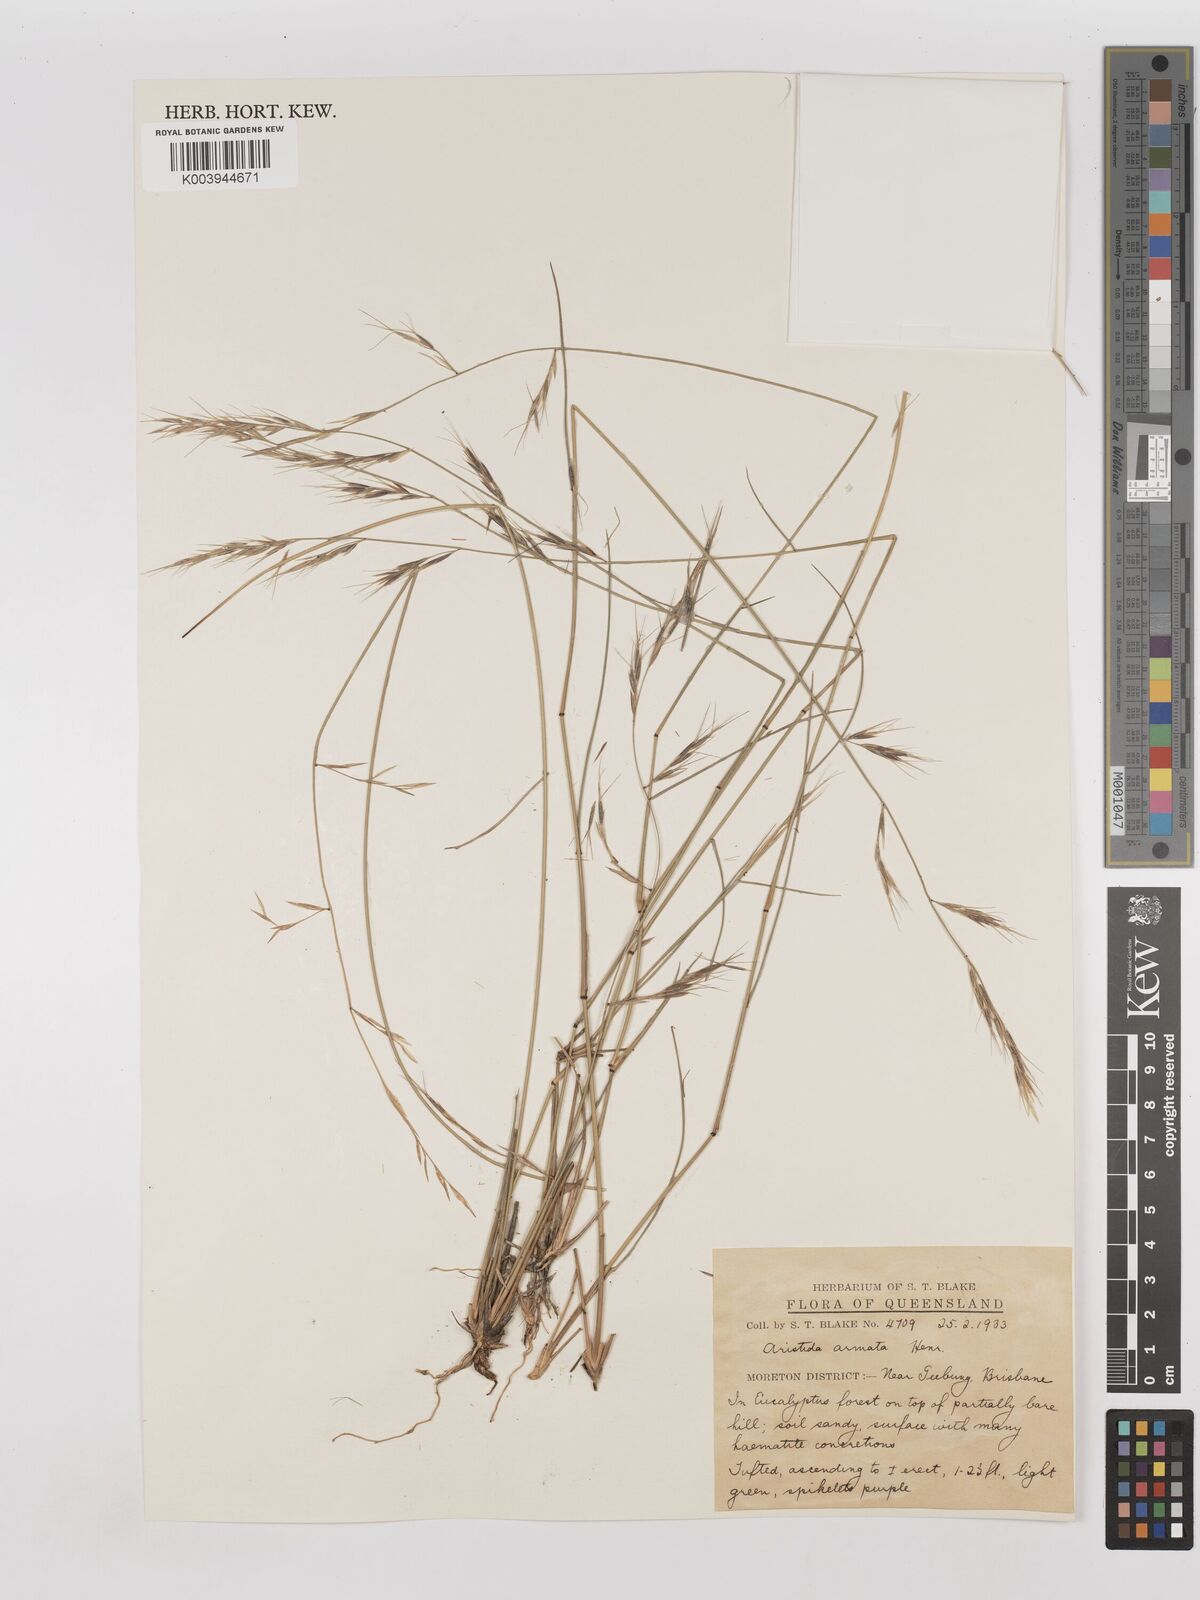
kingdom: Plantae
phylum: Tracheophyta
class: Liliopsida
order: Poales
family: Poaceae
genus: Aristida
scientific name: Aristida calycina
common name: Dark wire grass
